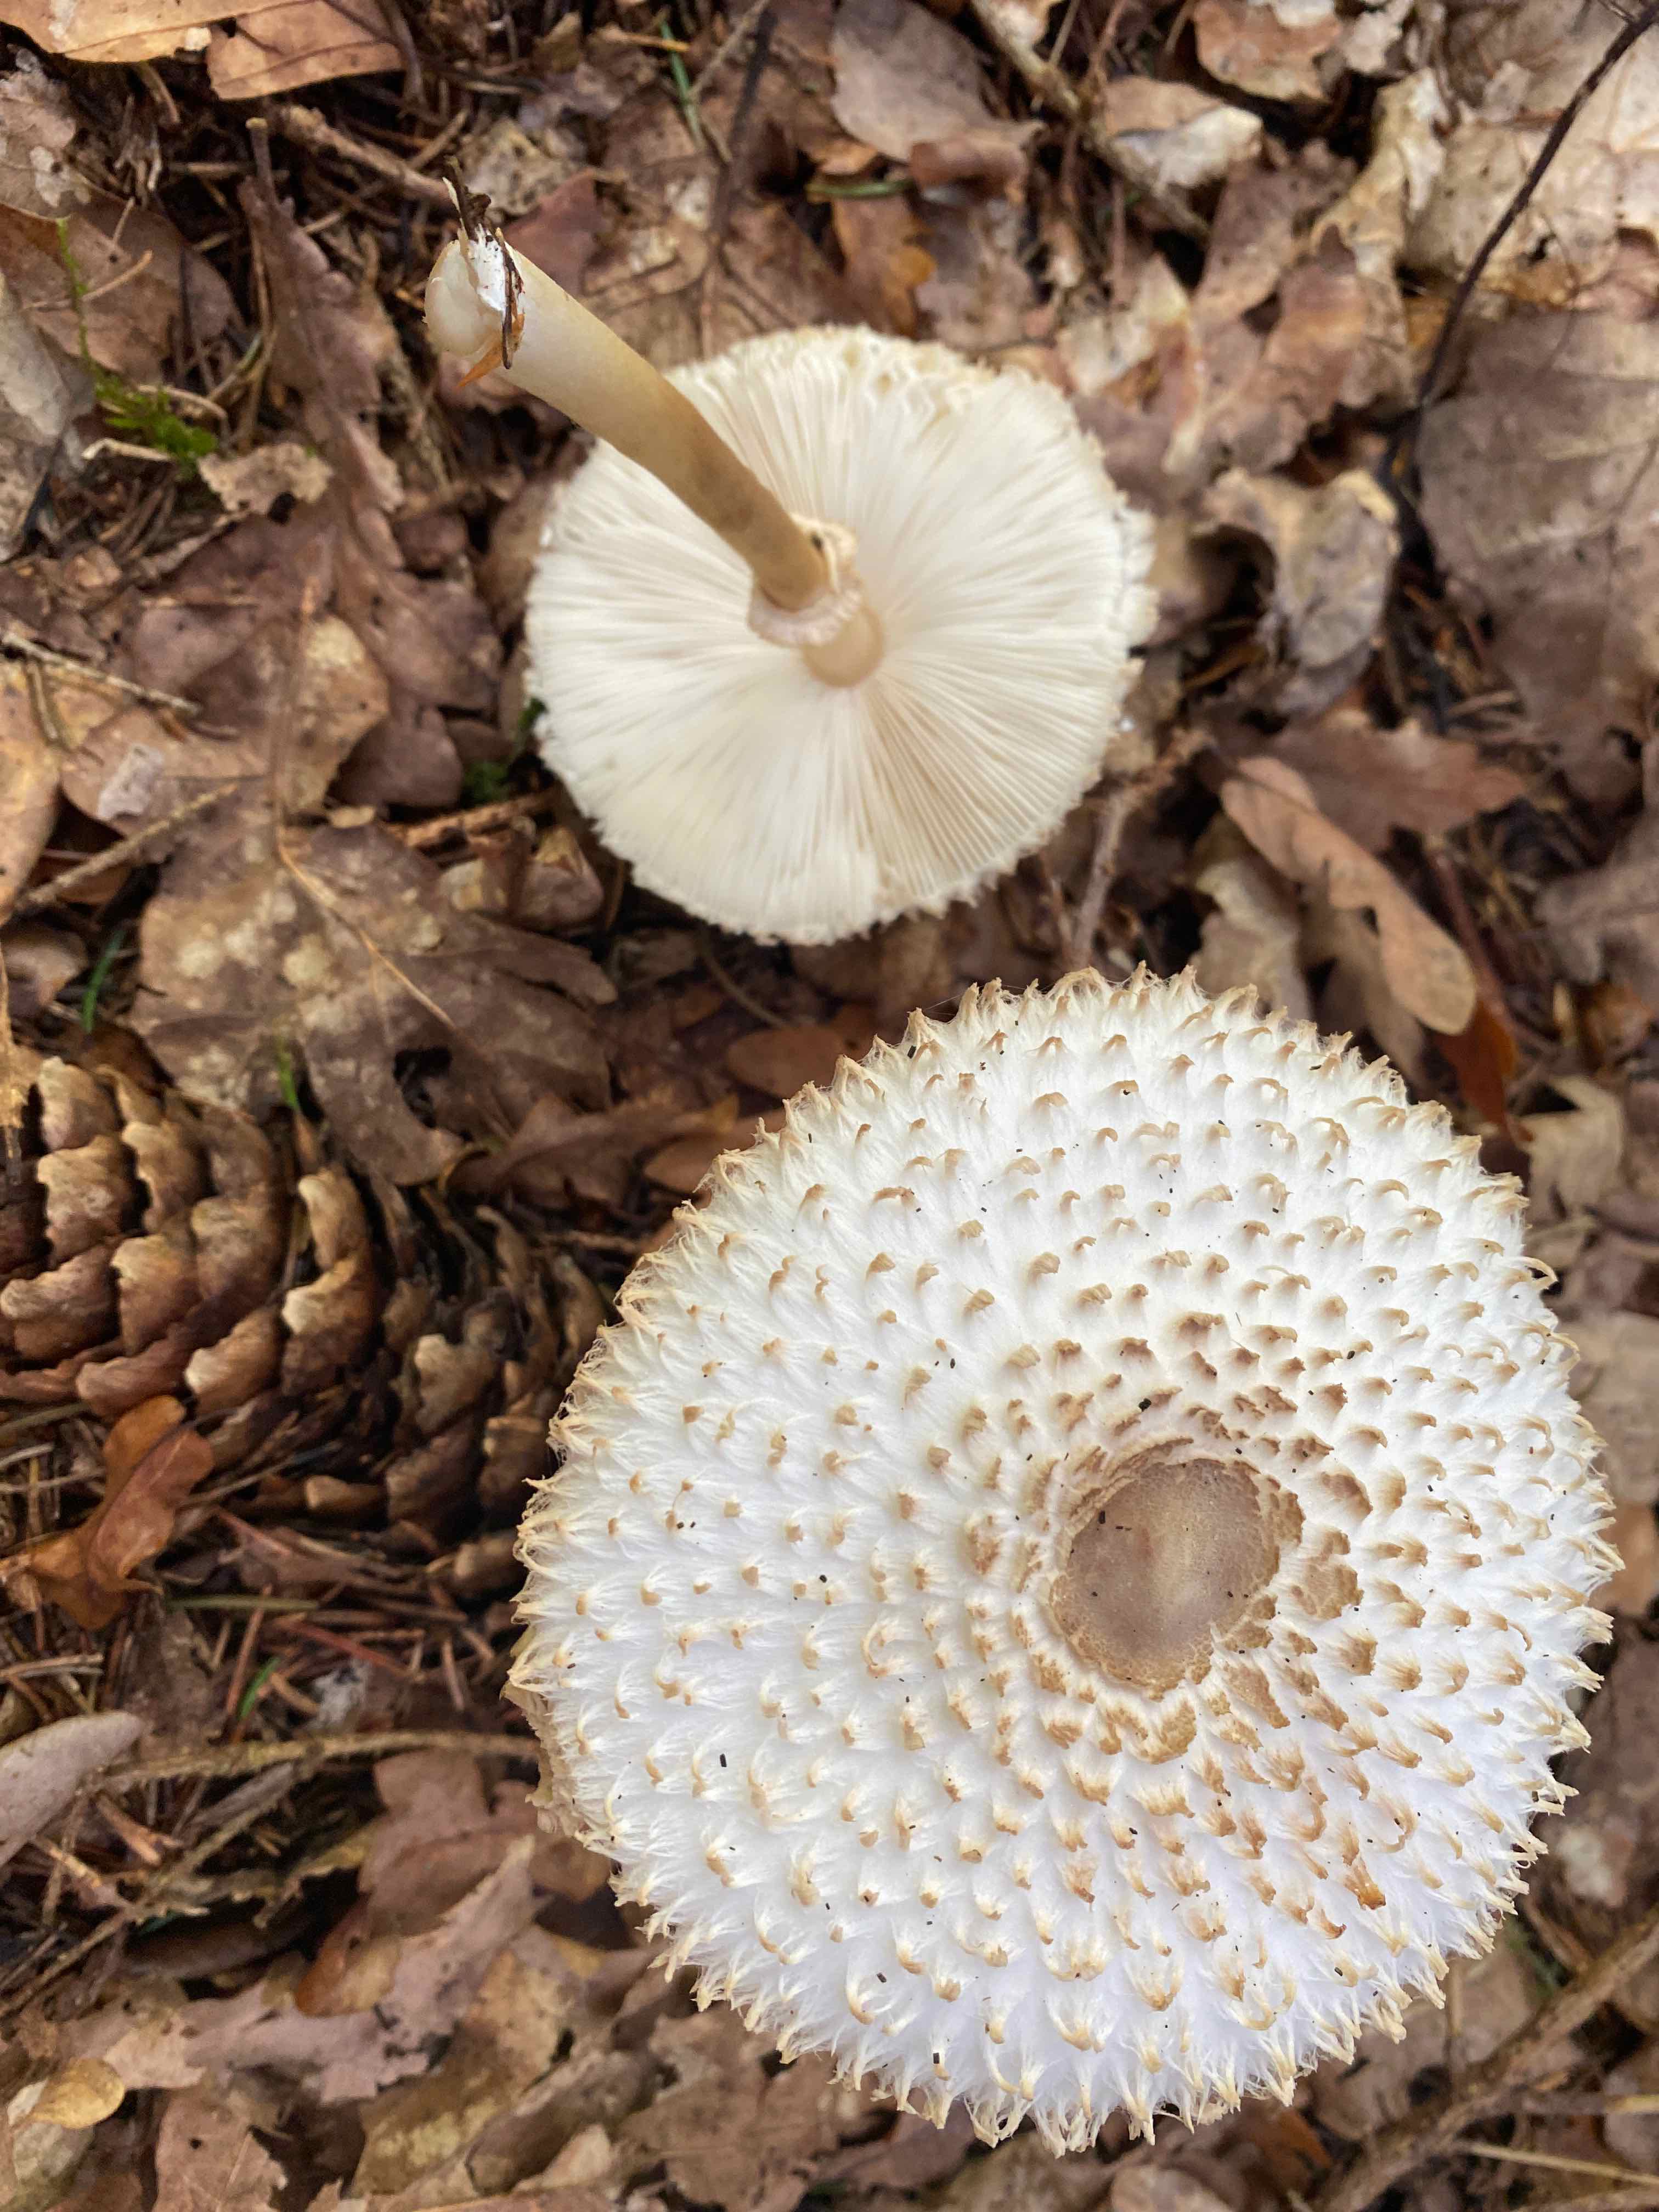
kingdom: Fungi
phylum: Basidiomycota
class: Agaricomycetes
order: Agaricales
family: Agaricaceae
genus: Leucoagaricus
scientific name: Leucoagaricus nympharum
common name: gran-silkehat
